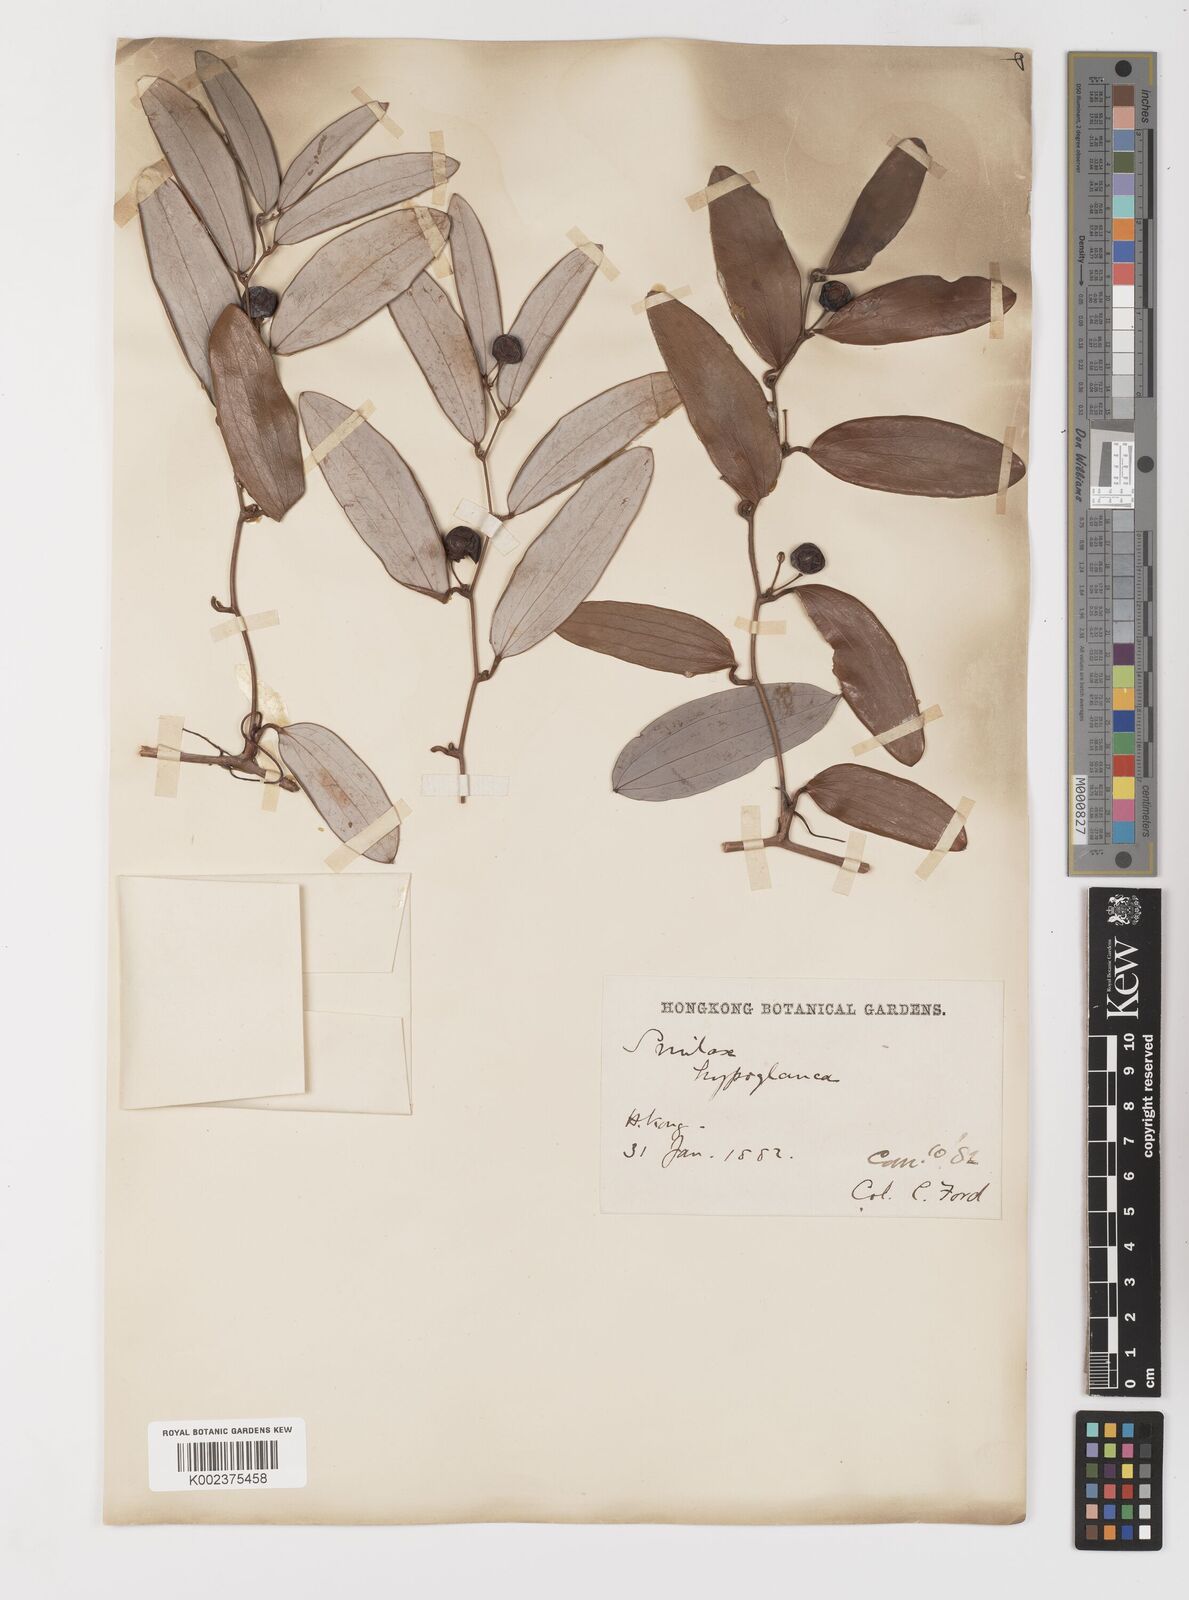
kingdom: Plantae
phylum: Tracheophyta
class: Liliopsida
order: Liliales
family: Smilacaceae
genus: Smilax
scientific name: Smilax hypoglauca
